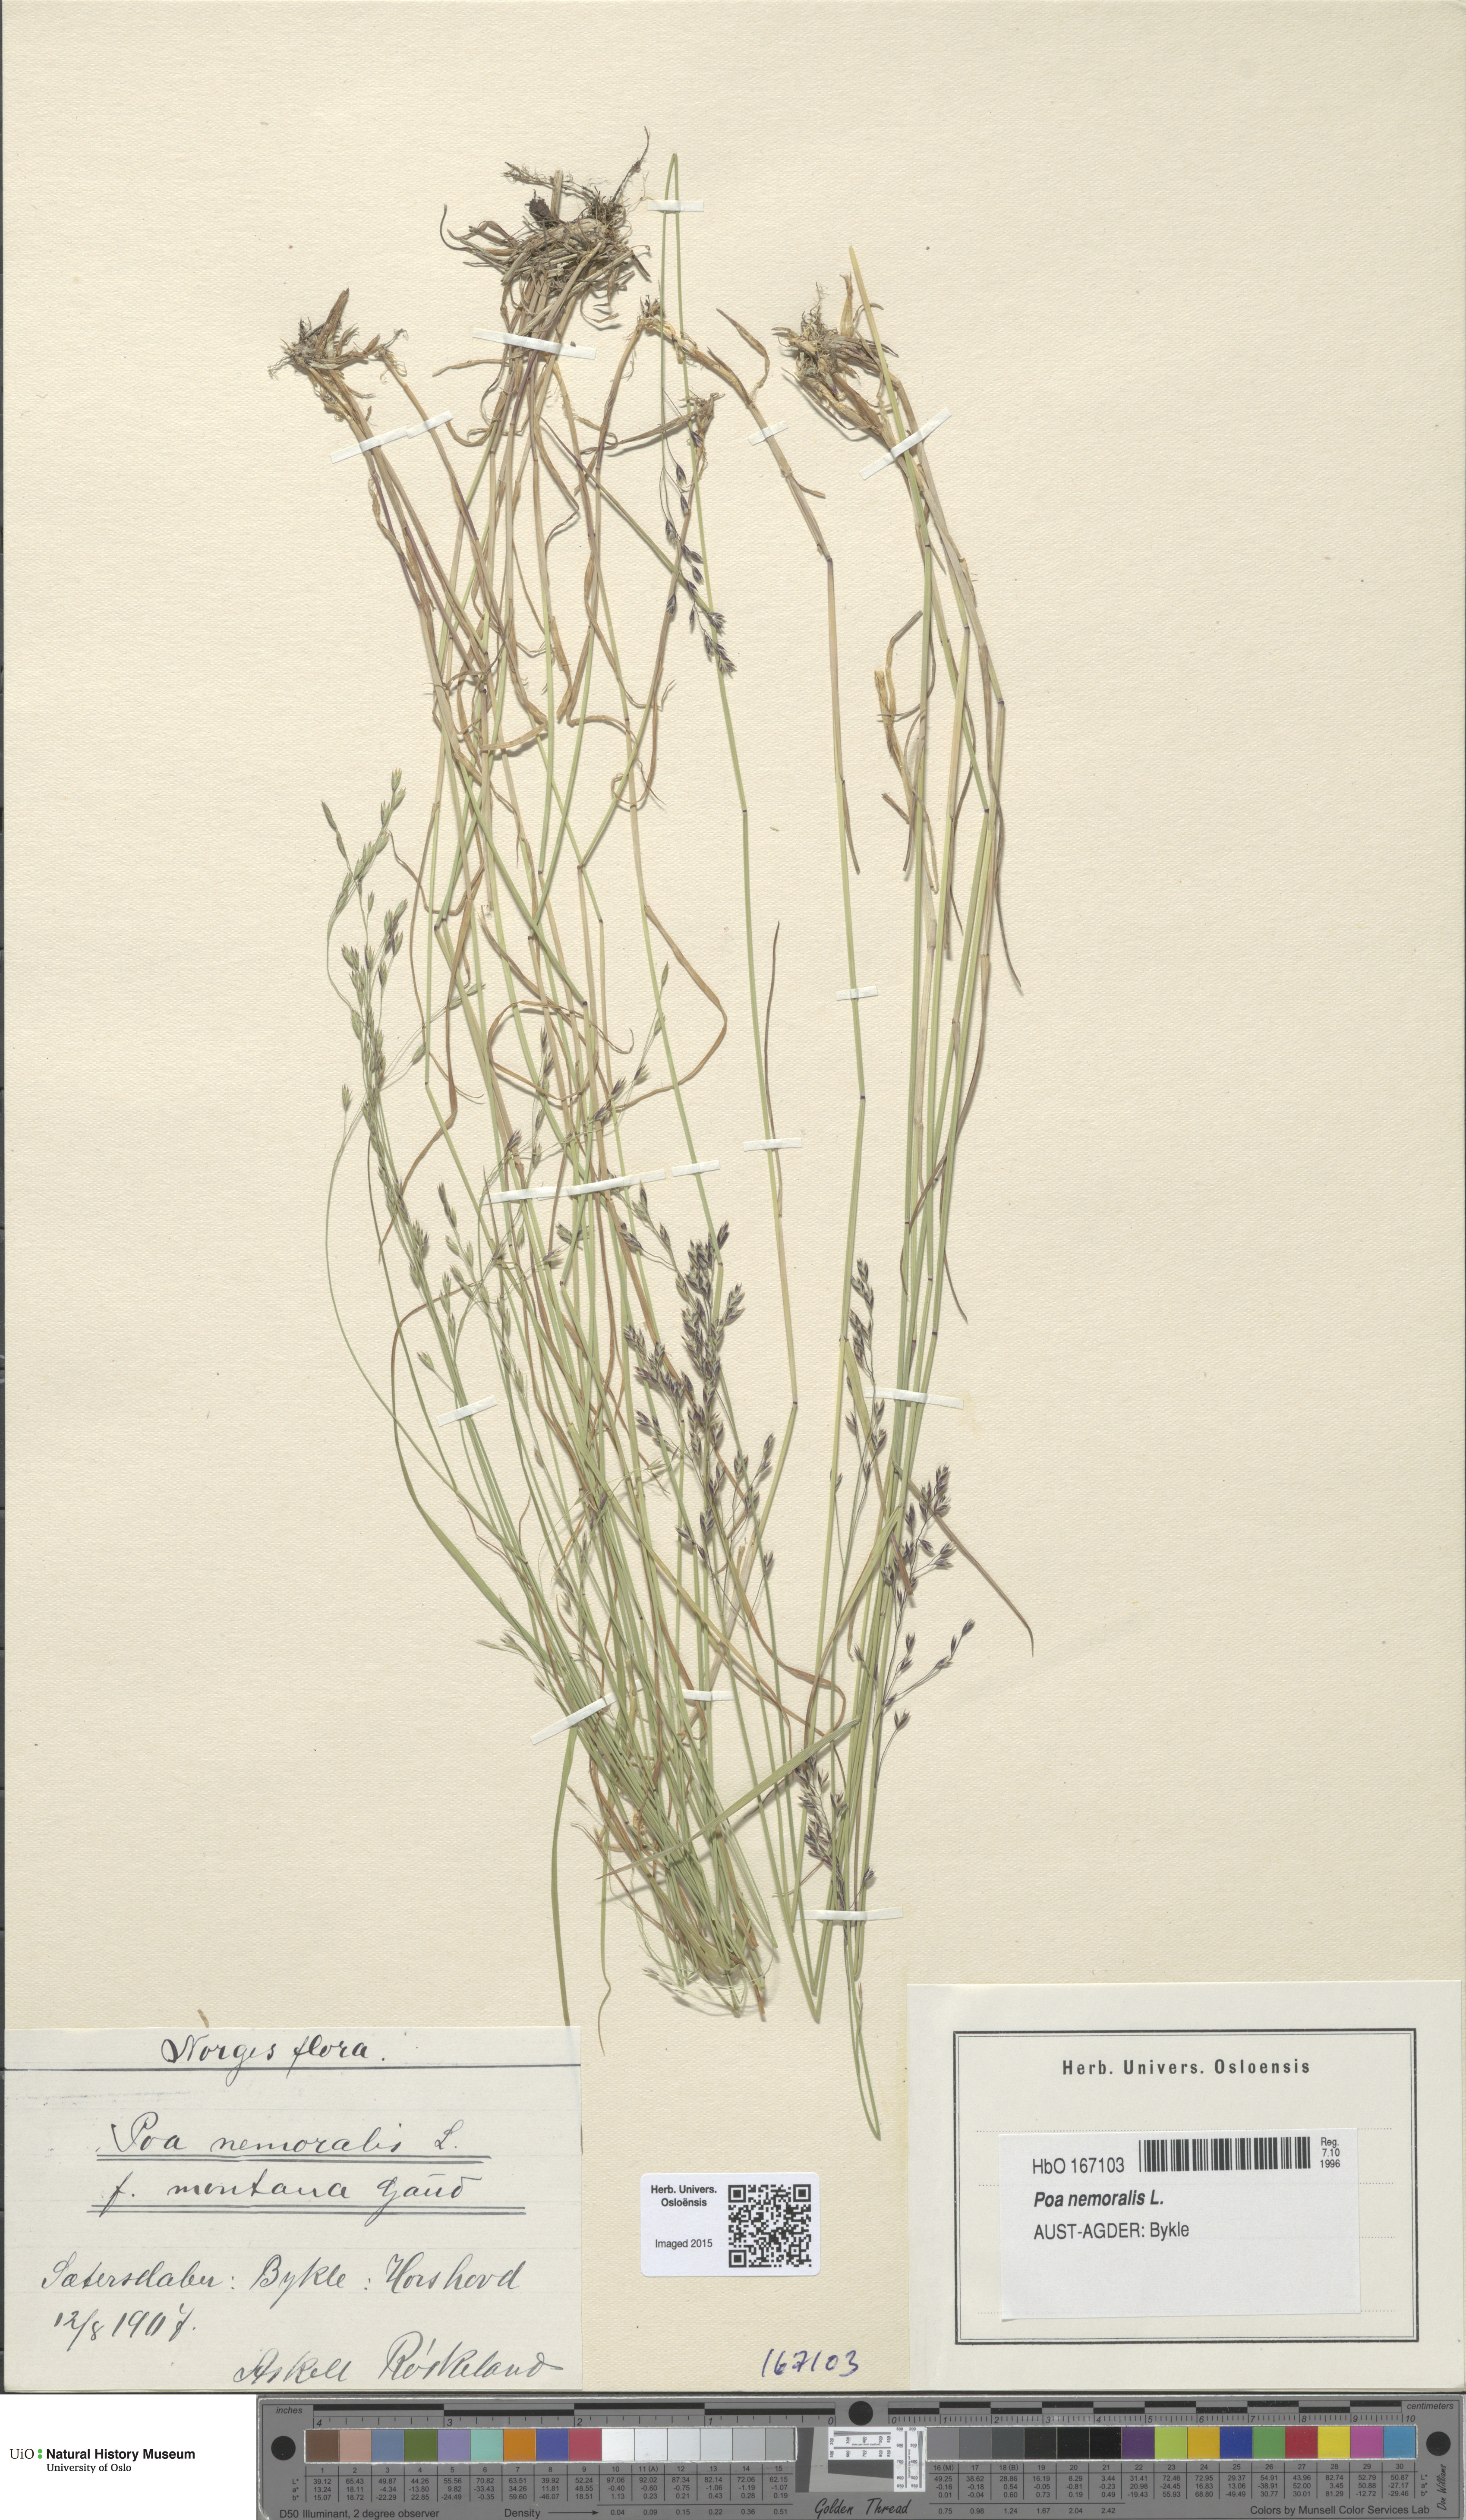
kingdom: Plantae
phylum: Tracheophyta
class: Liliopsida
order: Poales
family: Poaceae
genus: Poa
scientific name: Poa nemoralis
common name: Wood bluegrass
